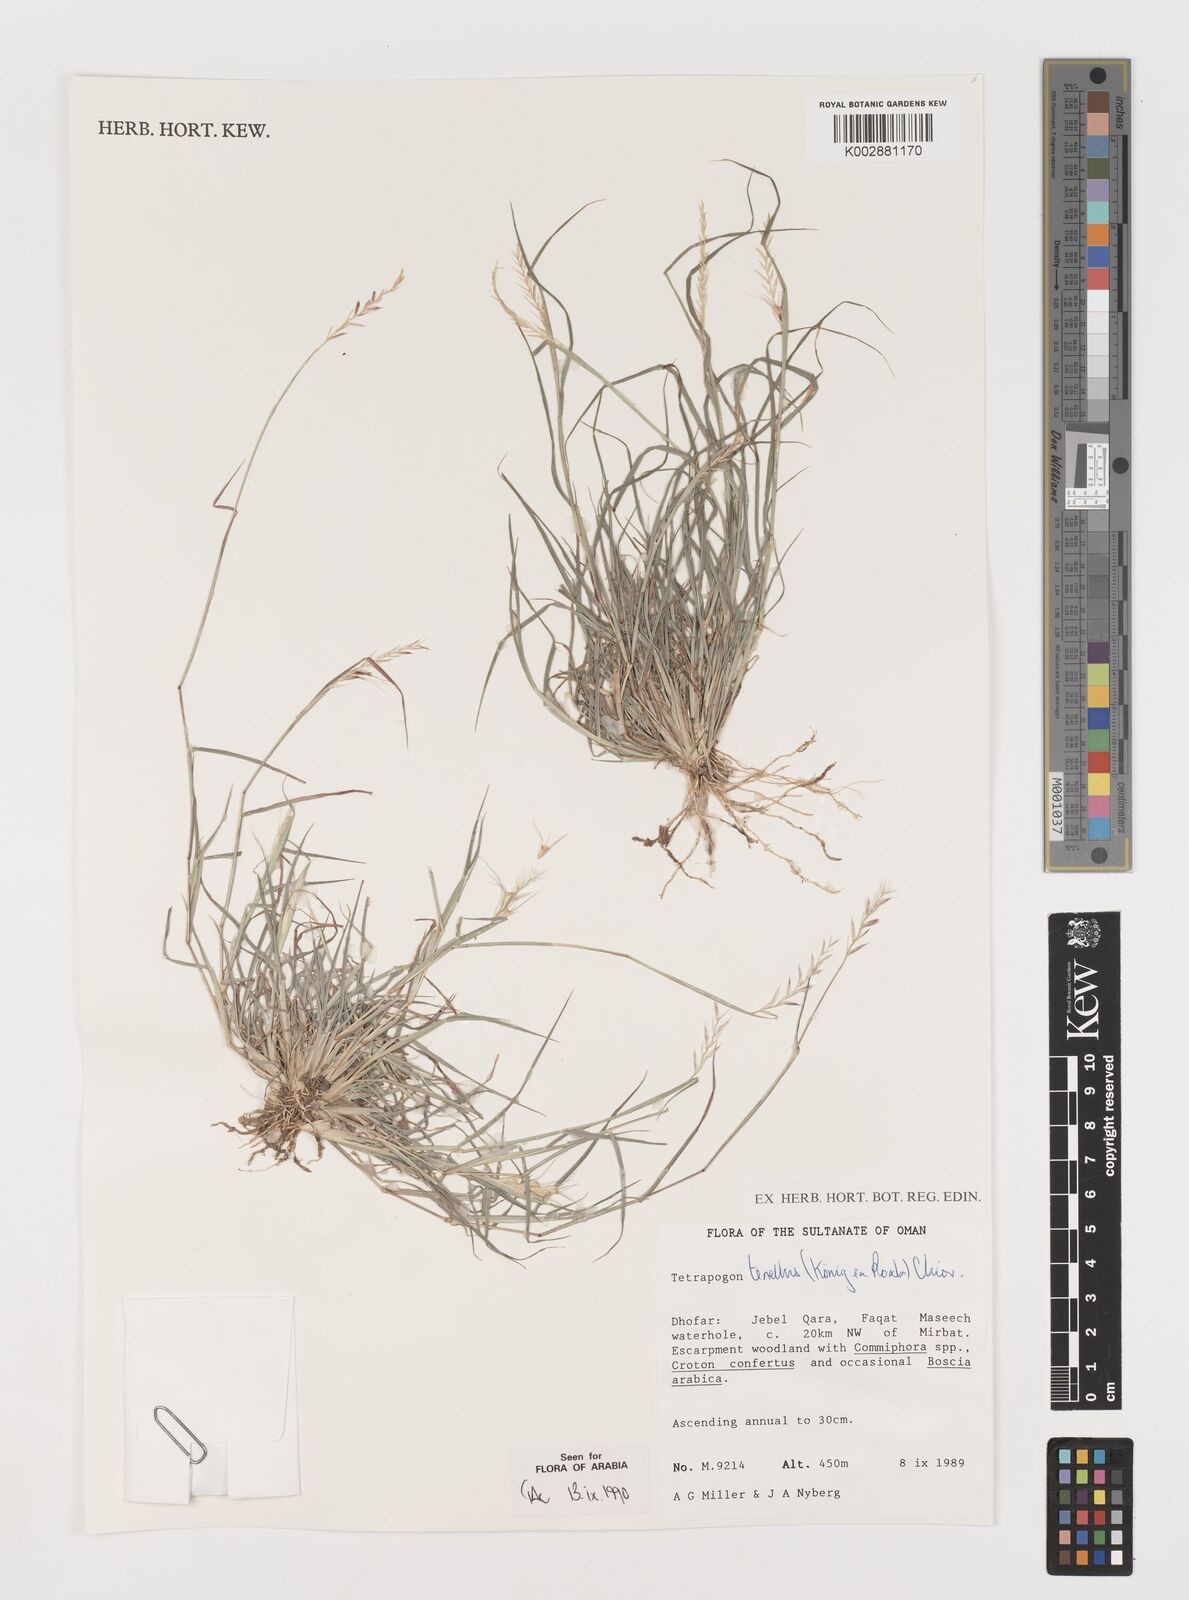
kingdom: Plantae
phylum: Tracheophyta
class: Liliopsida
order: Poales
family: Poaceae
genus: Tetrapogon
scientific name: Tetrapogon tenellus
